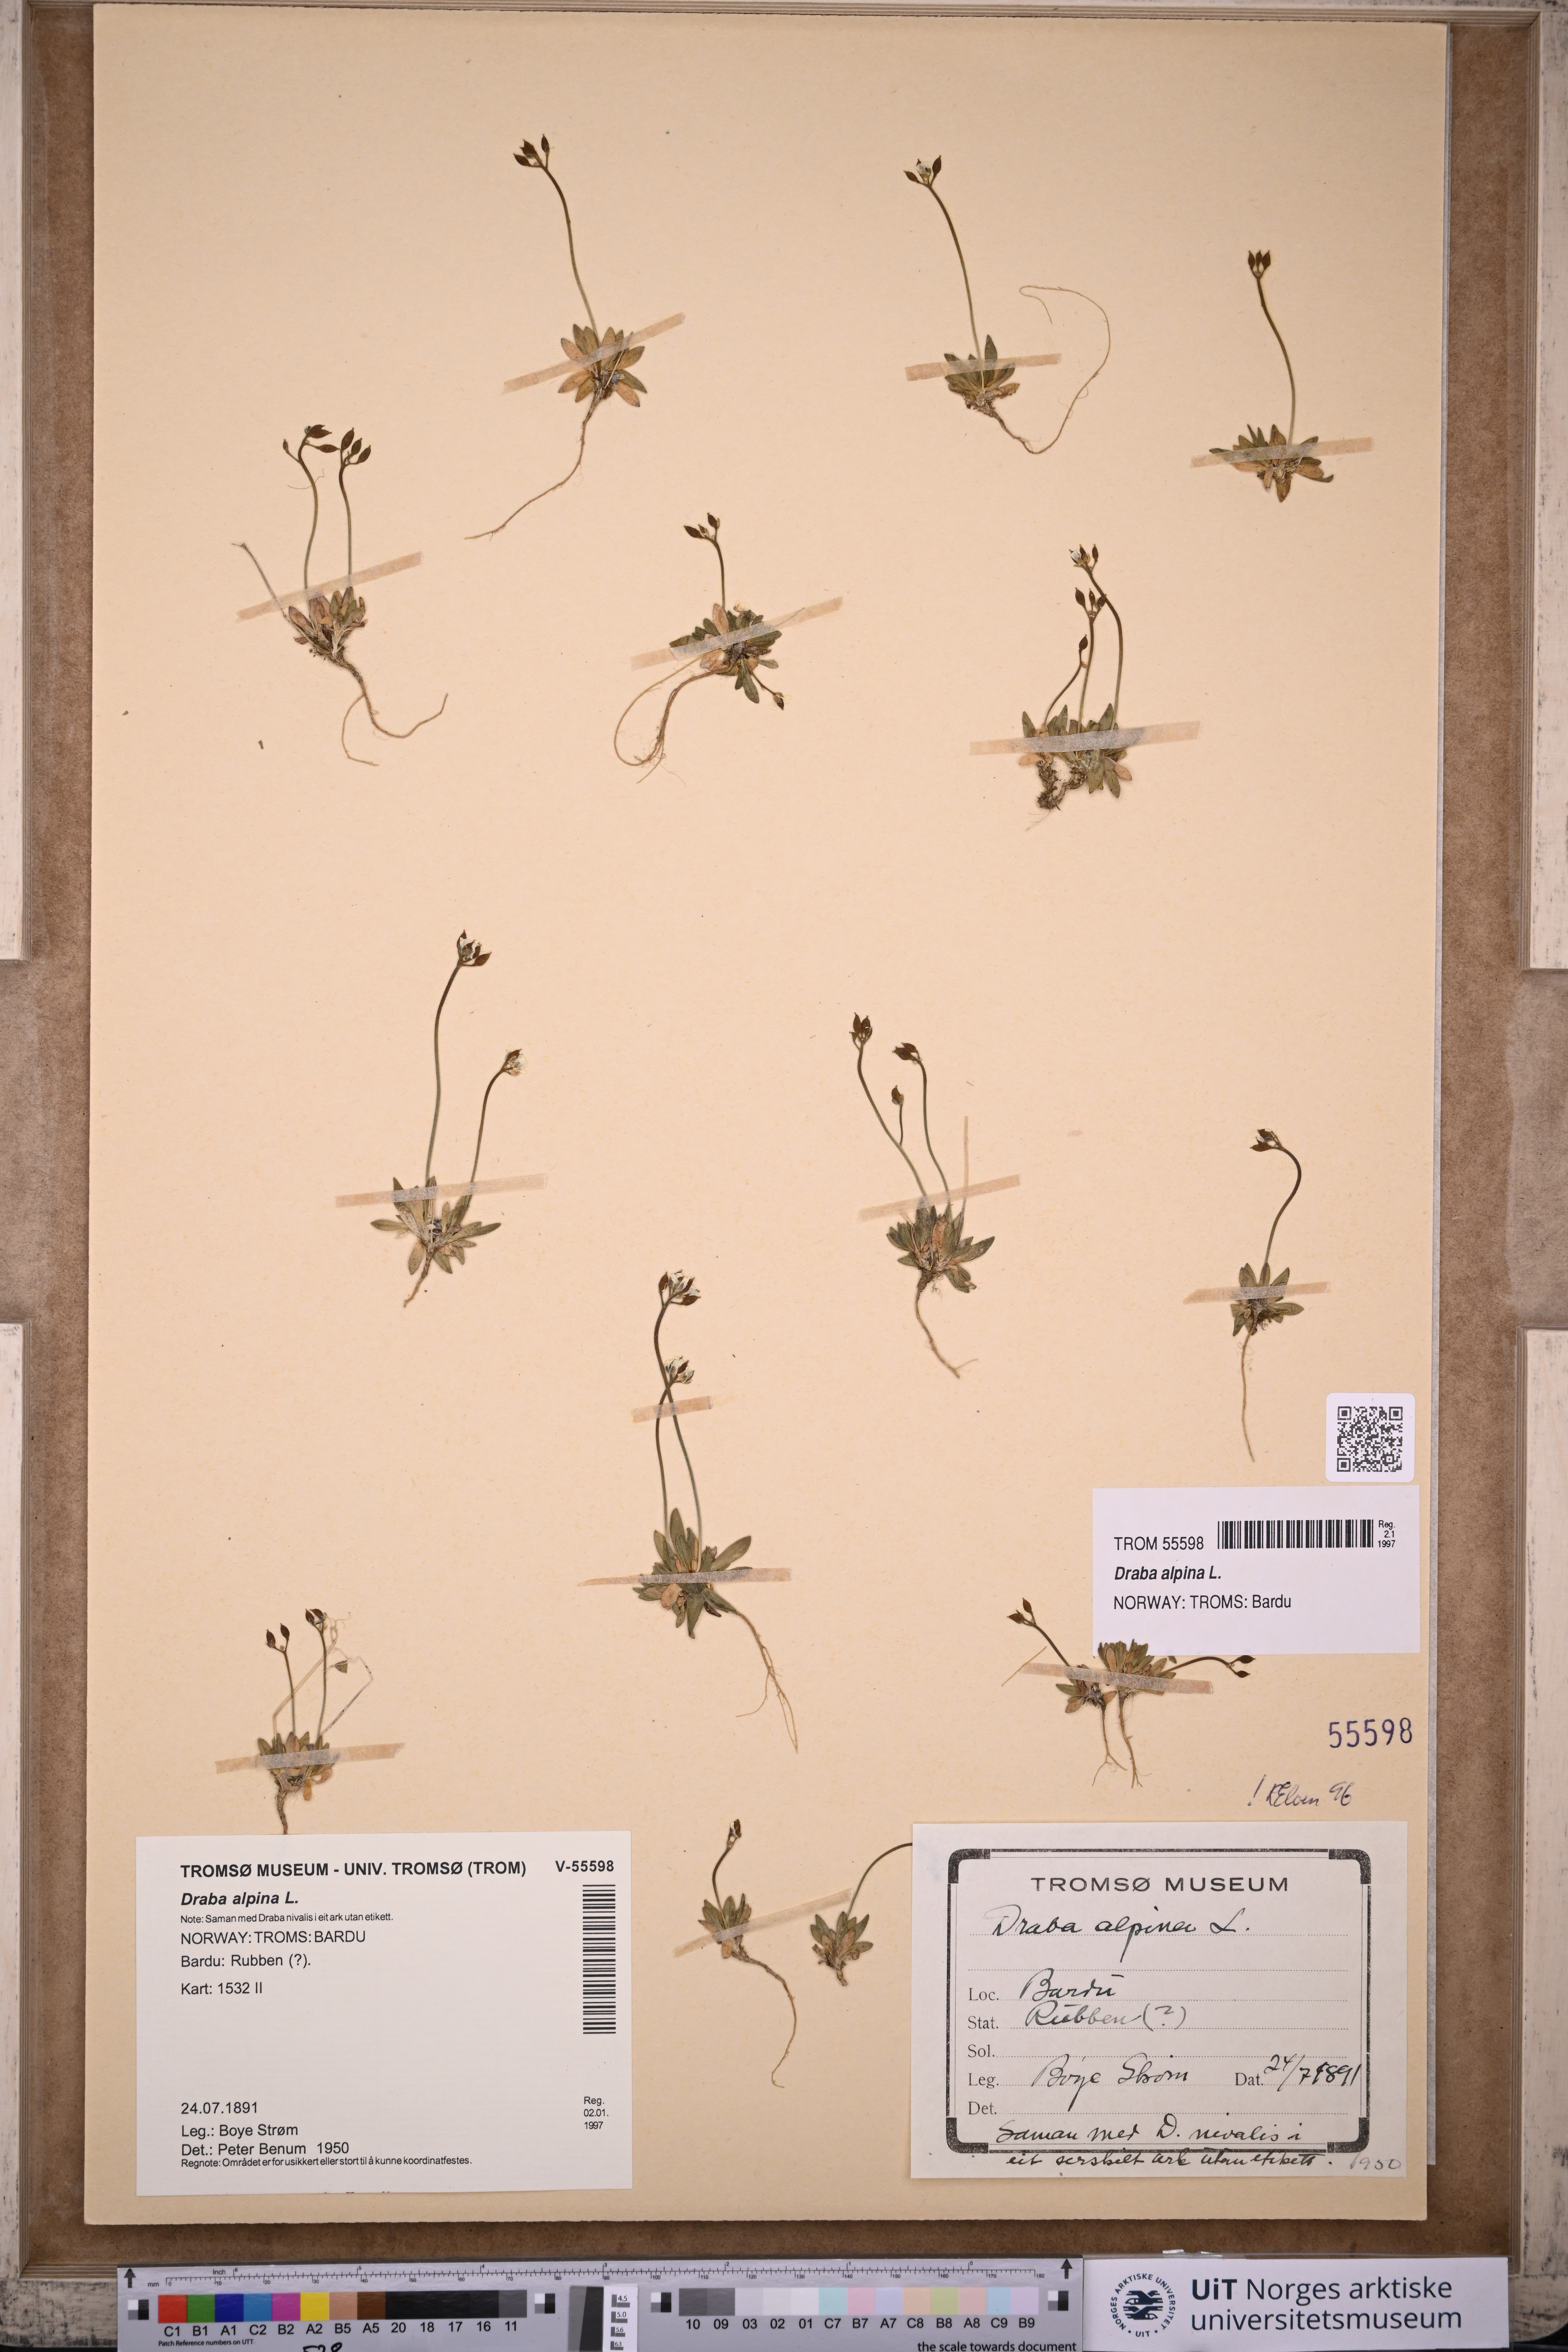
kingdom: Plantae
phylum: Tracheophyta
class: Magnoliopsida
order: Brassicales
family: Brassicaceae
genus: Draba
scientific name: Draba alpina
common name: Alpine draba
